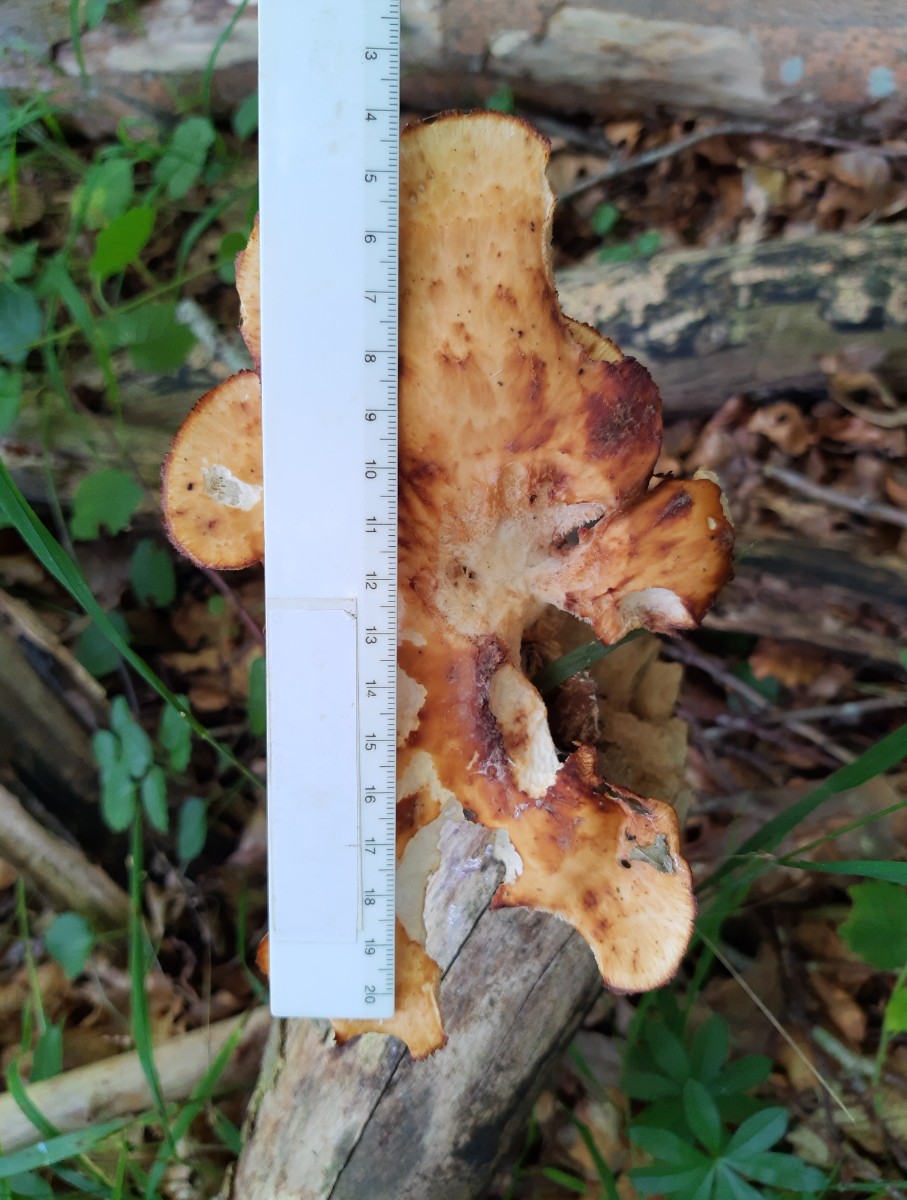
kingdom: Fungi
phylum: Basidiomycota
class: Agaricomycetes
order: Polyporales
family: Polyporaceae
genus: Polyporus
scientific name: Polyporus tuberaster
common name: knoldet stilkporesvamp
